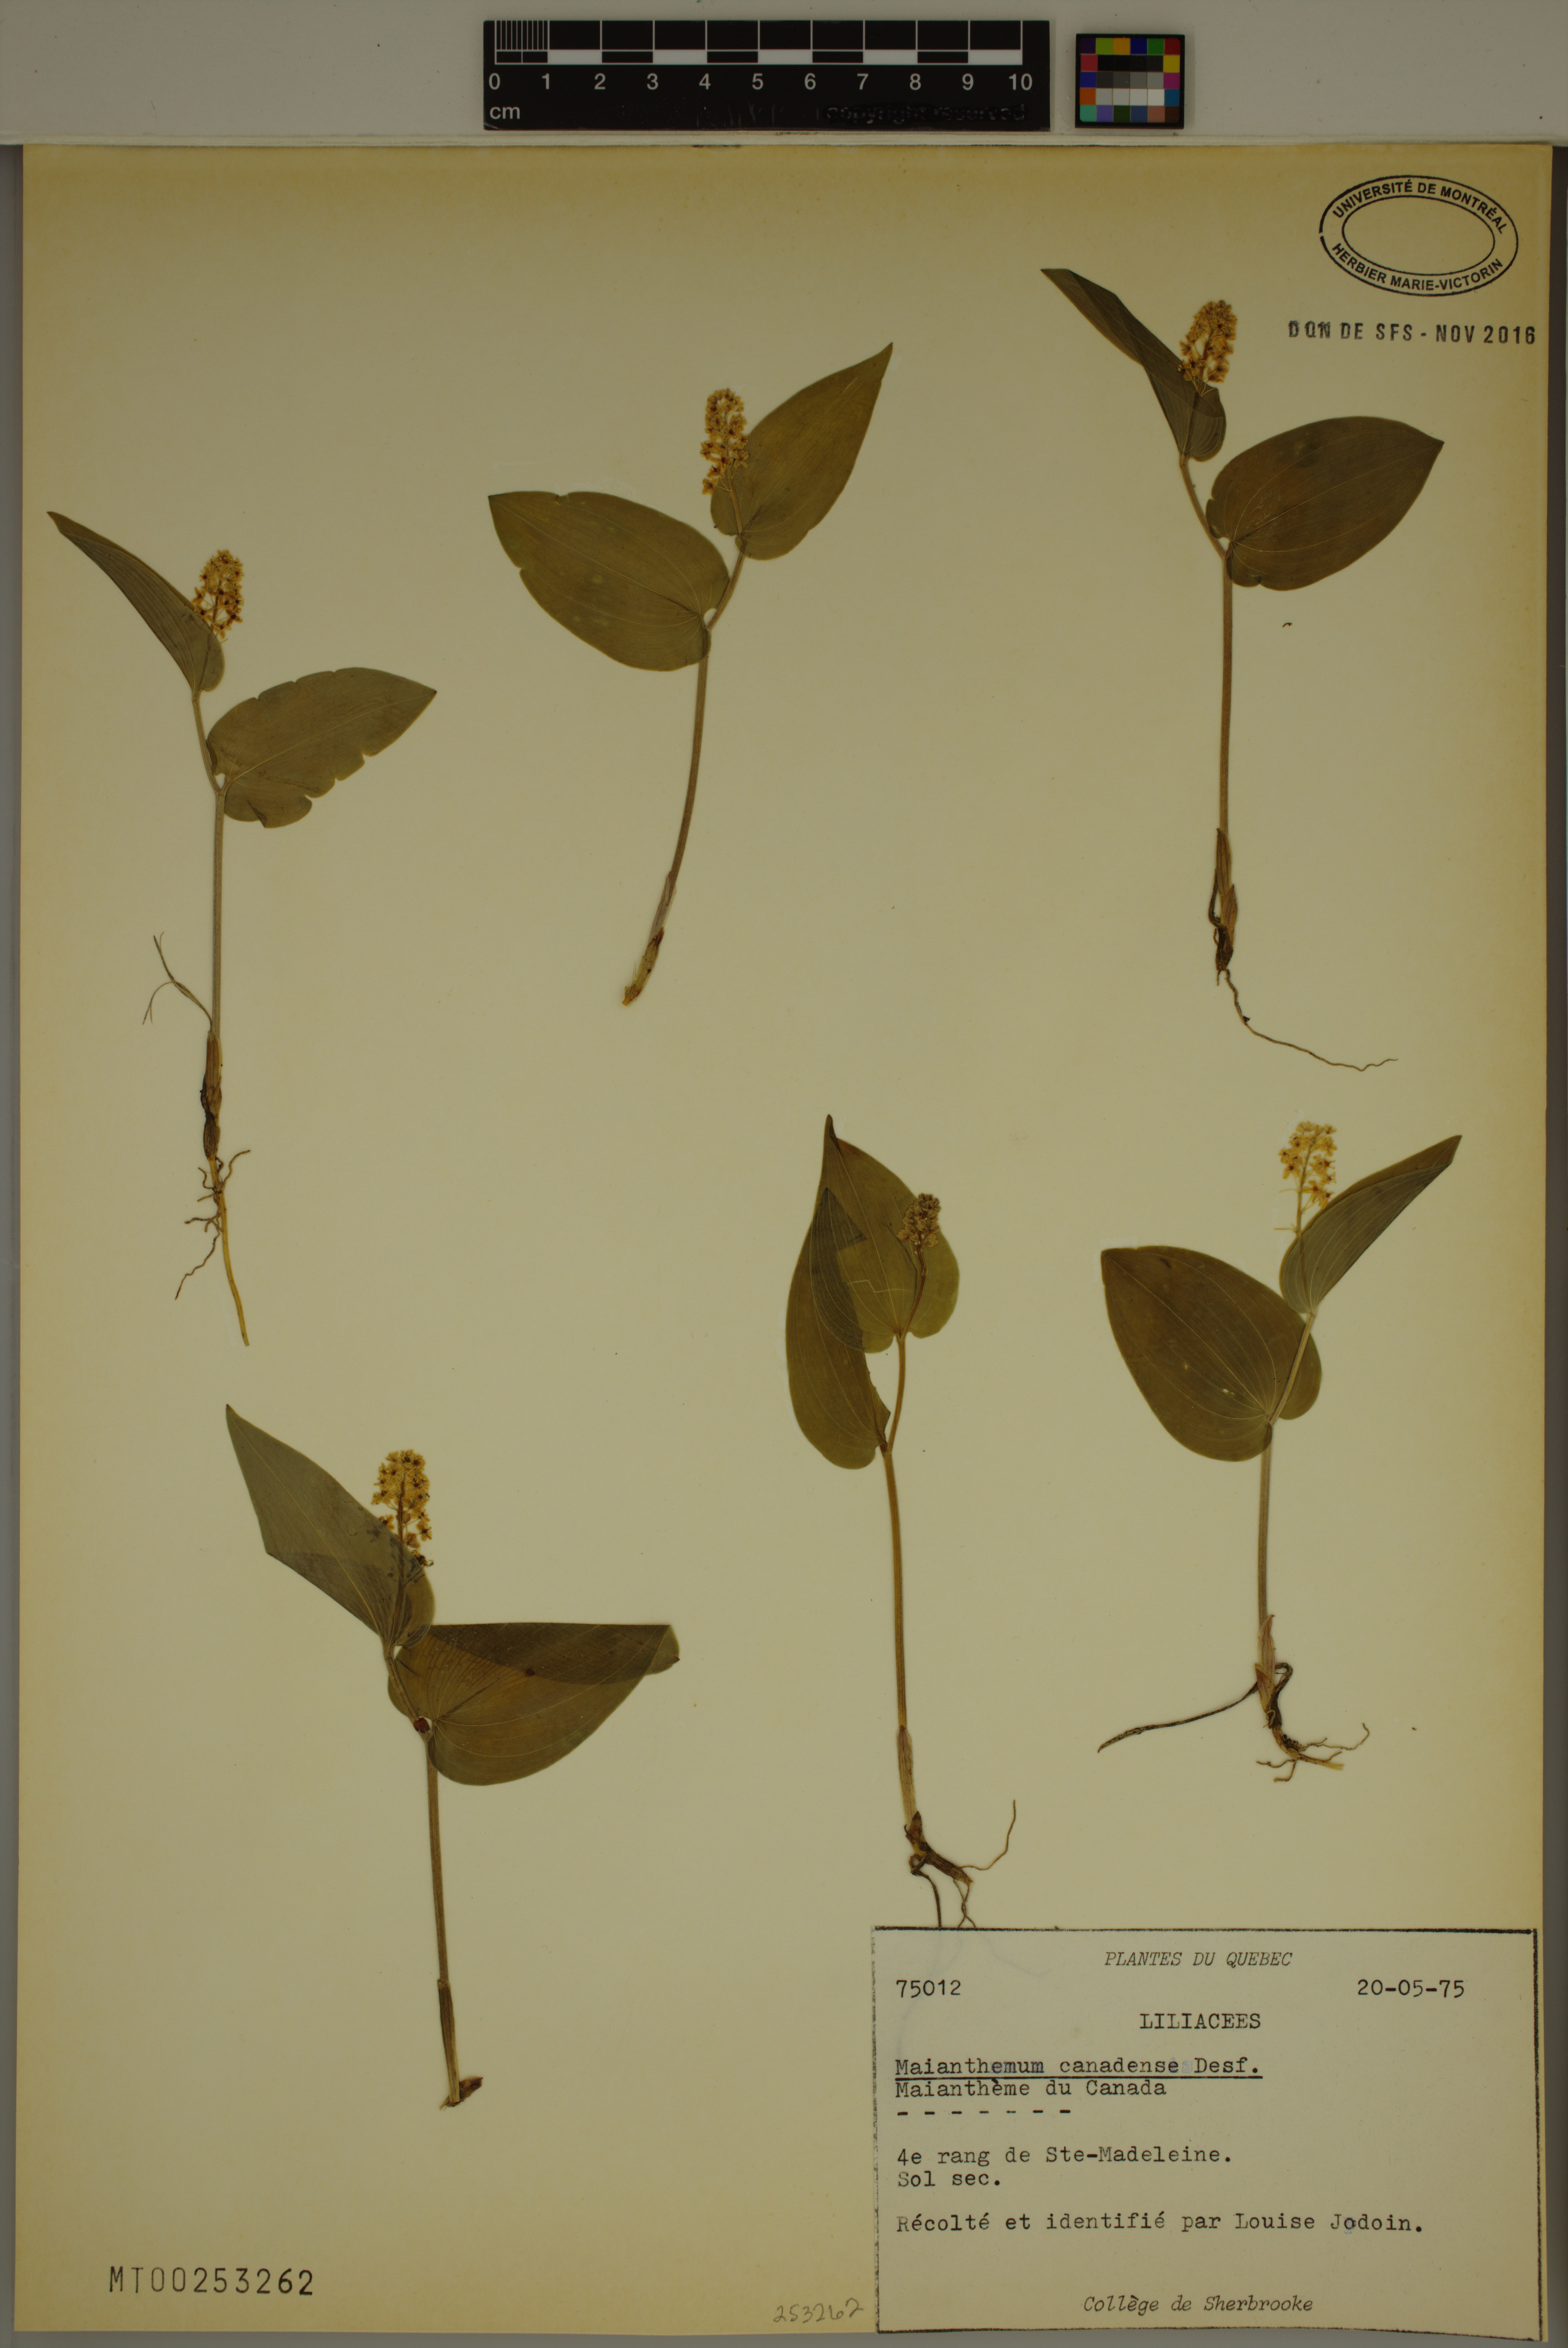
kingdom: Plantae
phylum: Tracheophyta
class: Liliopsida
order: Asparagales
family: Asparagaceae
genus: Maianthemum
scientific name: Maianthemum canadense
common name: False lily-of-the-valley
